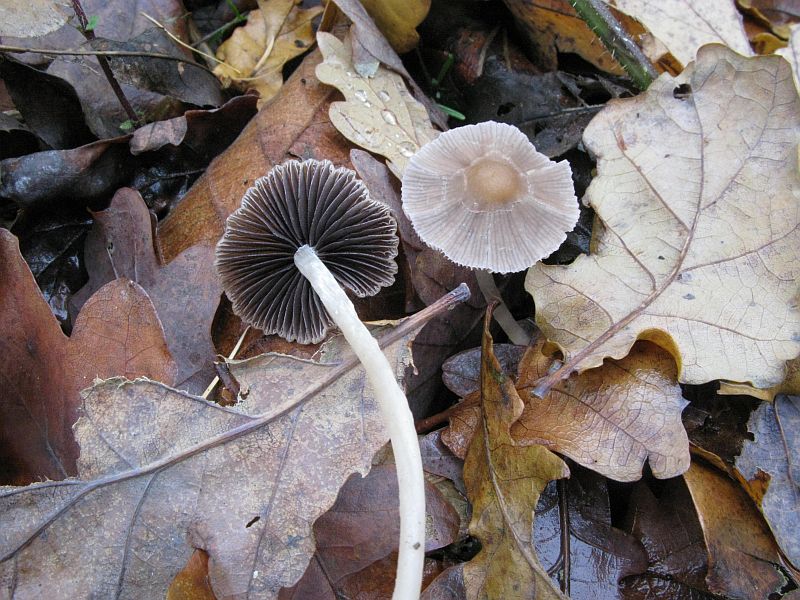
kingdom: Fungi
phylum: Basidiomycota
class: Agaricomycetes
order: Agaricales
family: Psathyrellaceae
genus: Psathyrella
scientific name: Psathyrella pseudogracilis
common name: slank mørkhat
